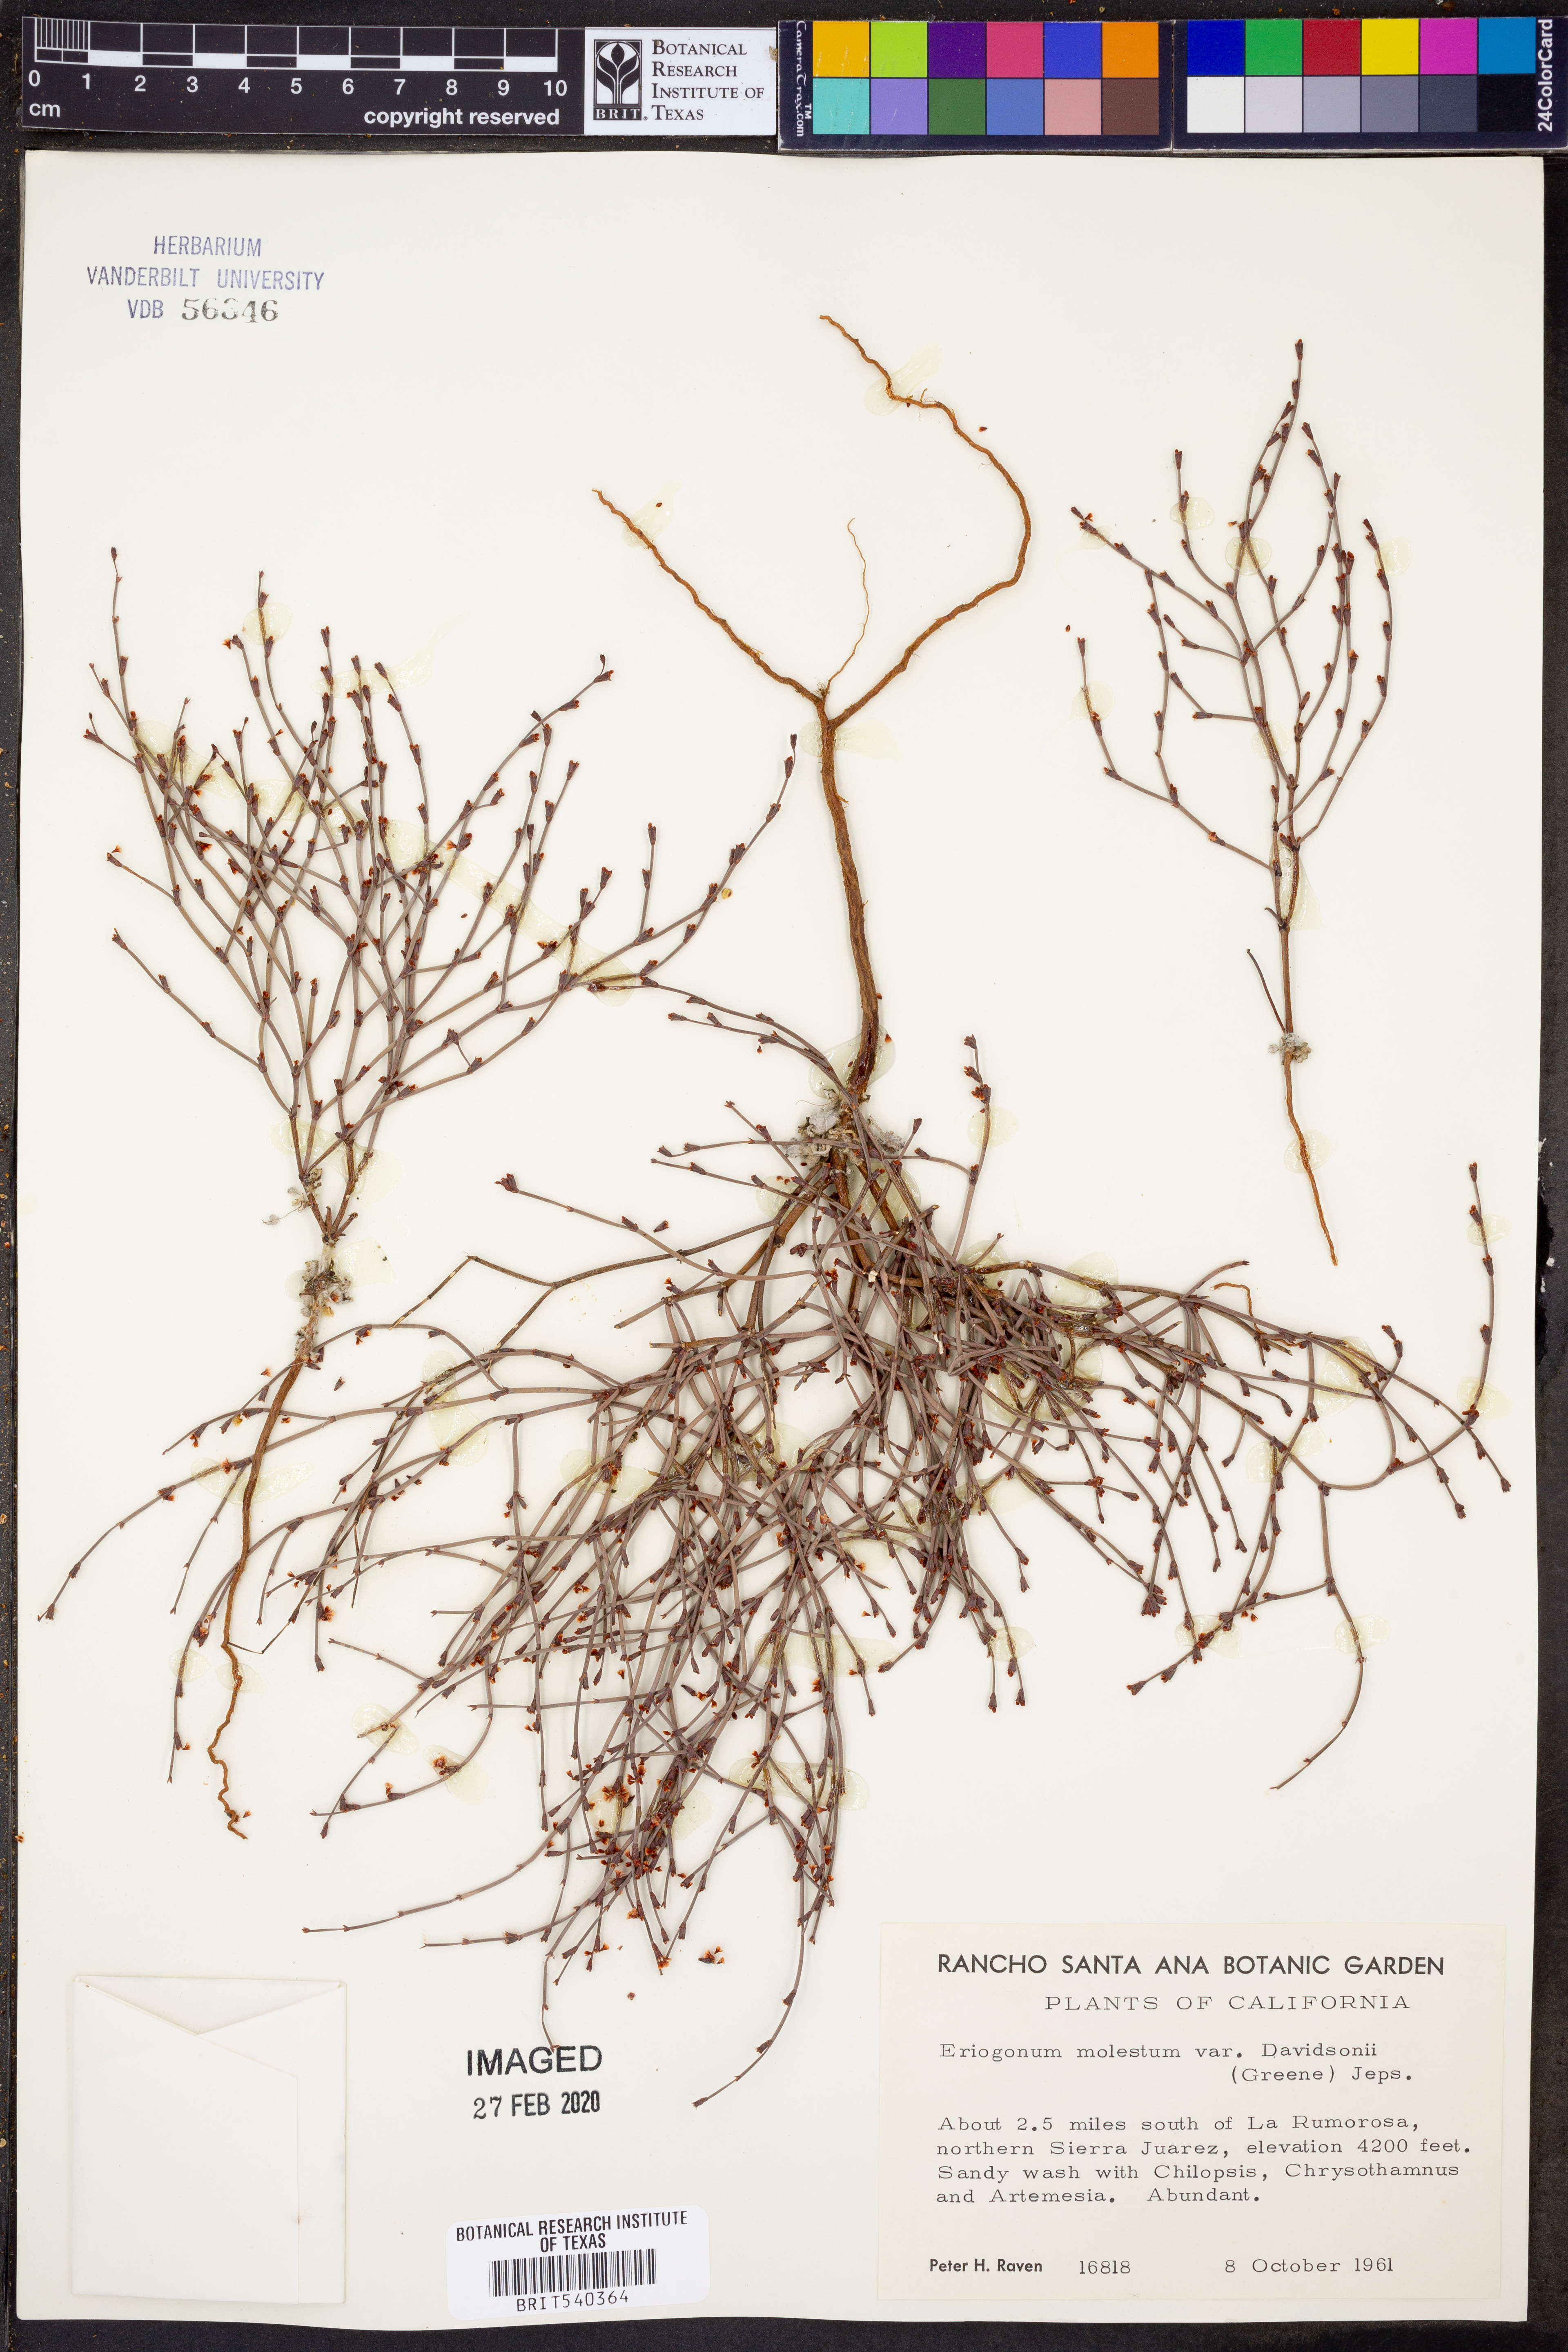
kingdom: Plantae
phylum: Tracheophyta
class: Magnoliopsida
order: Caryophyllales
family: Polygonaceae
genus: Eriogonum
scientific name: Eriogonum davidsonii
